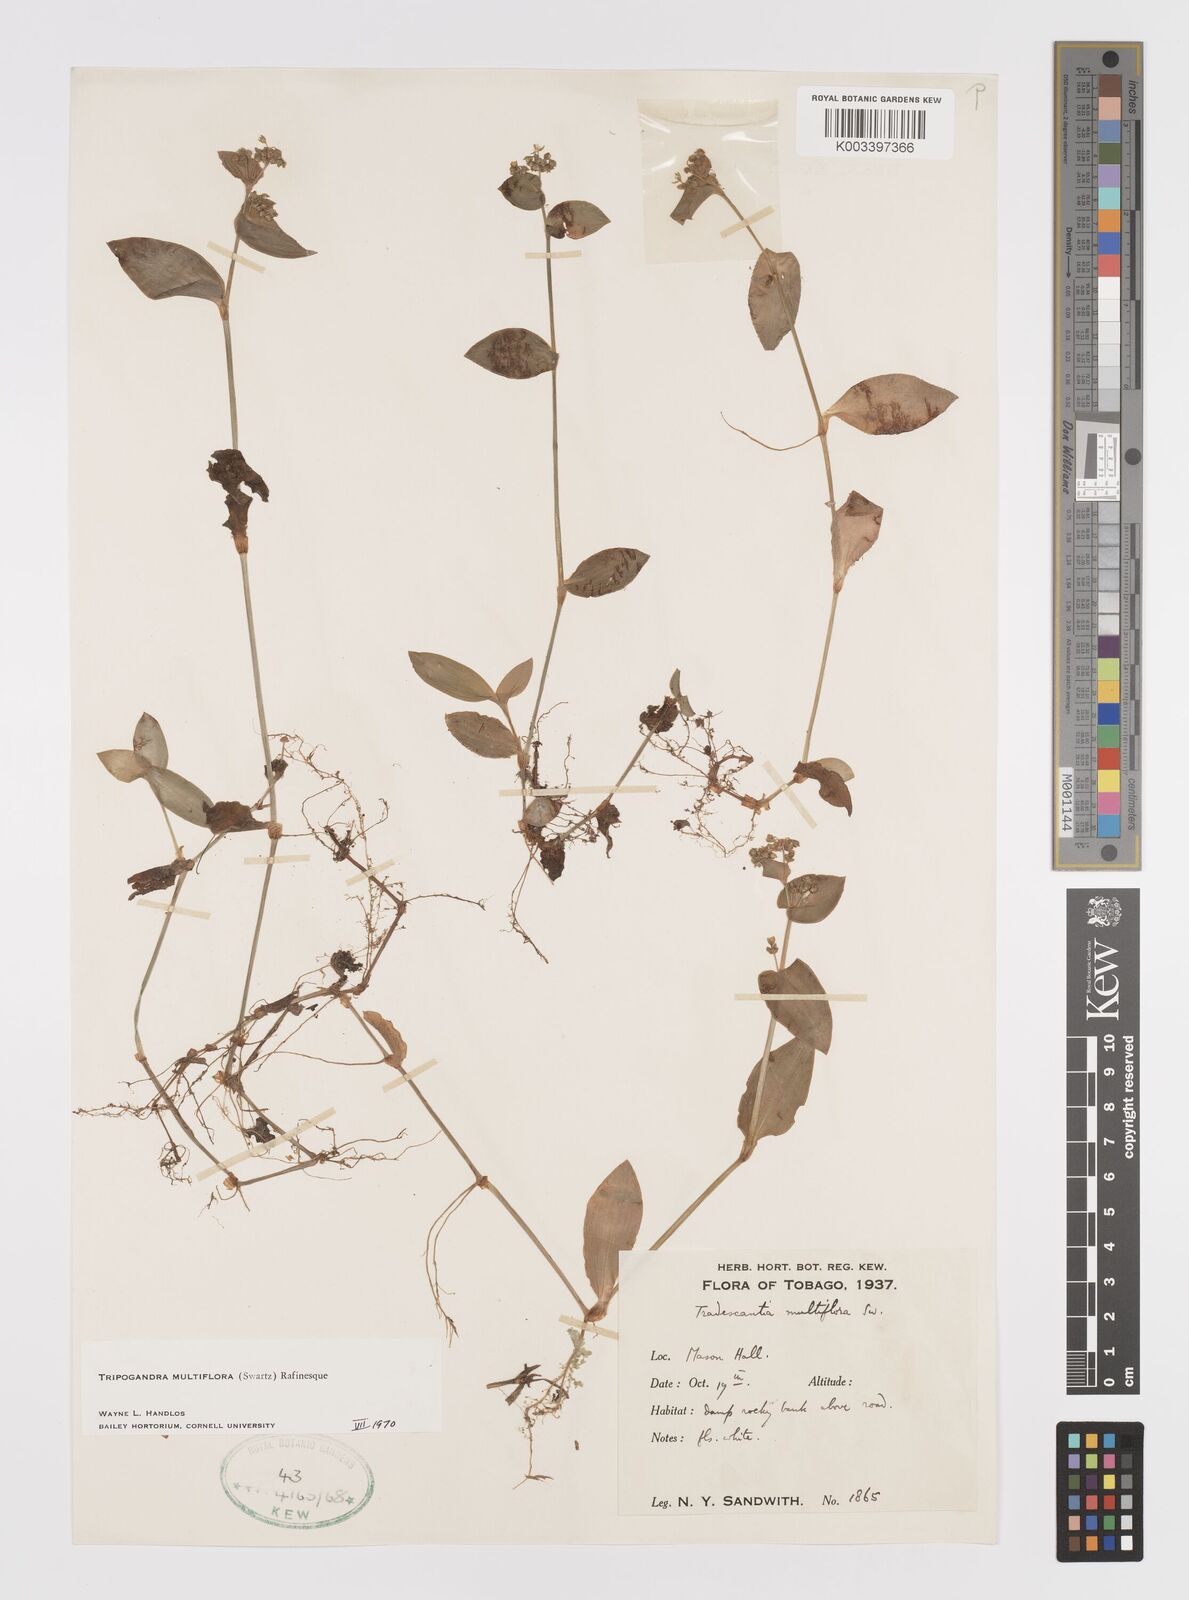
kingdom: Plantae
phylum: Tracheophyta
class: Liliopsida
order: Commelinales
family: Commelinaceae
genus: Callisia
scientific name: Callisia procumbens
